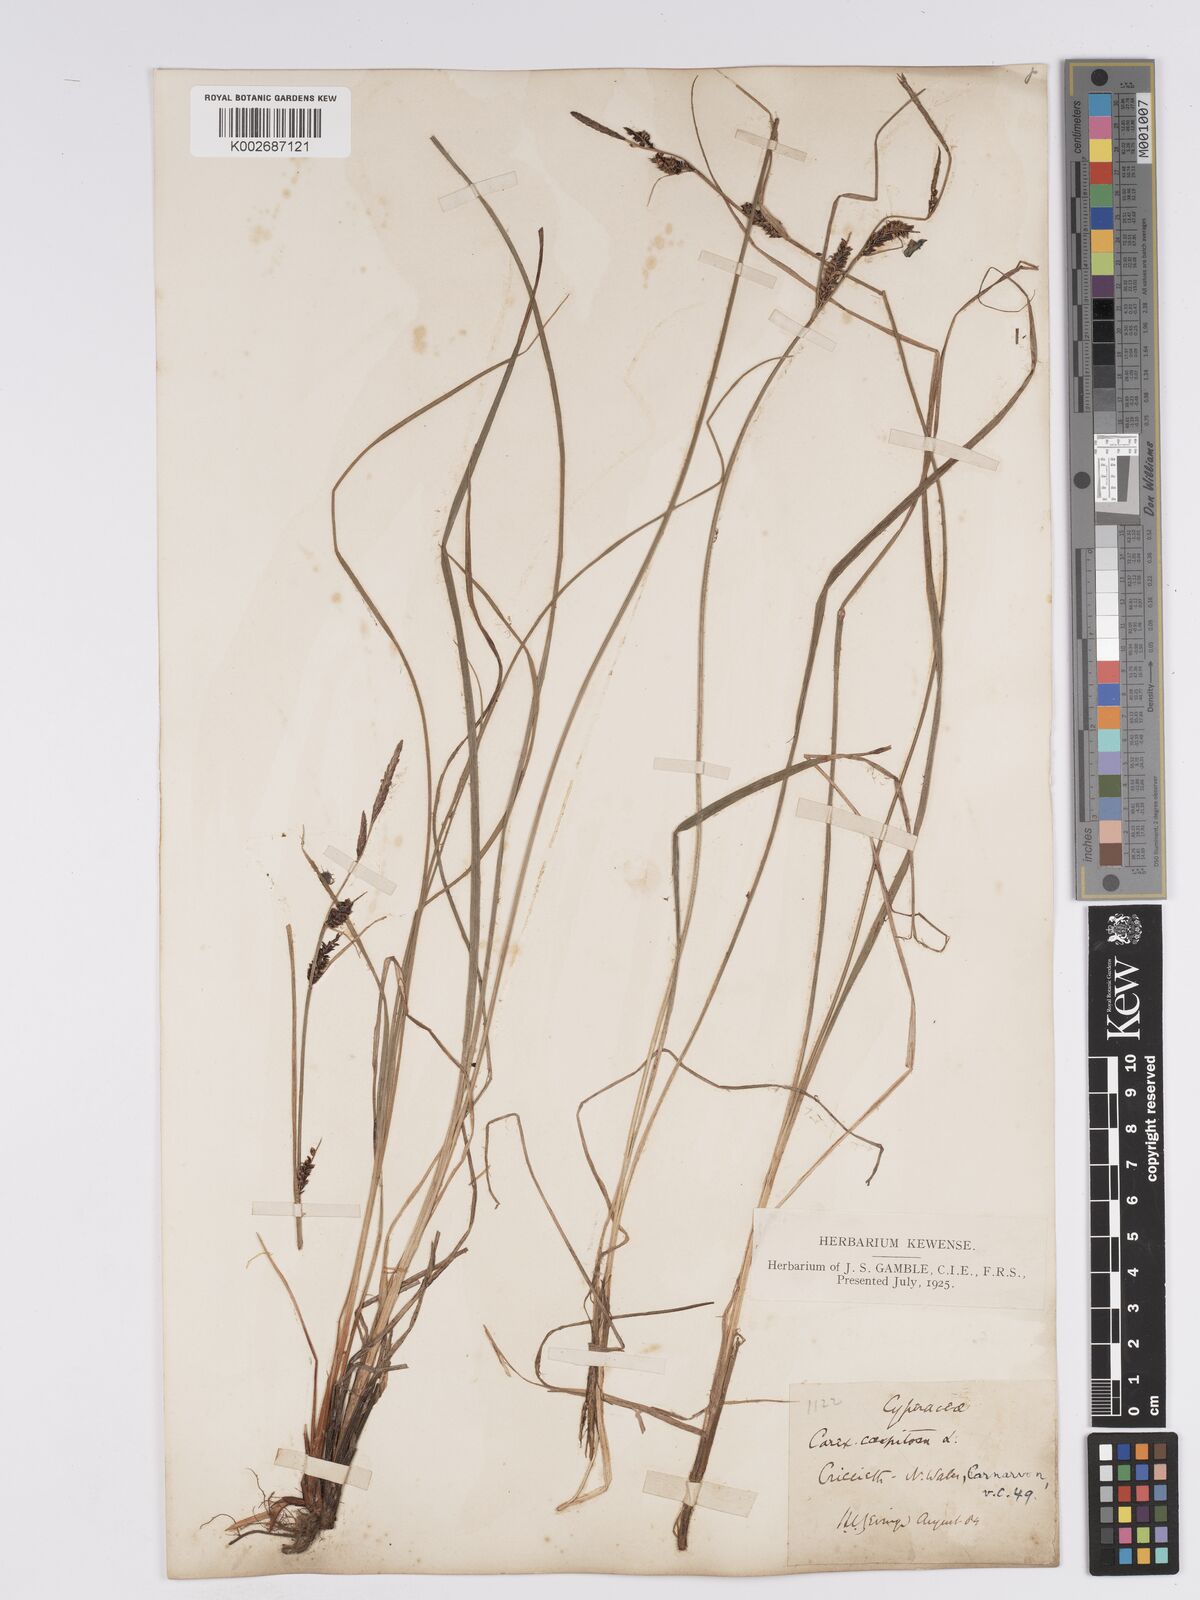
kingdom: Plantae
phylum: Tracheophyta
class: Liliopsida
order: Poales
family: Cyperaceae
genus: Carex
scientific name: Carex nigra
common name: Common sedge
